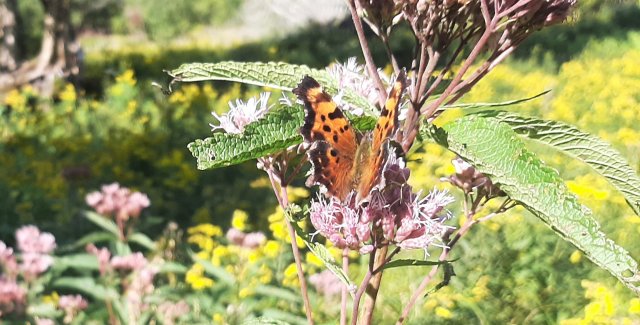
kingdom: Animalia
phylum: Arthropoda
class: Insecta
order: Lepidoptera
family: Nymphalidae
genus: Polygonia
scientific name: Polygonia faunus
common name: Green Comma
